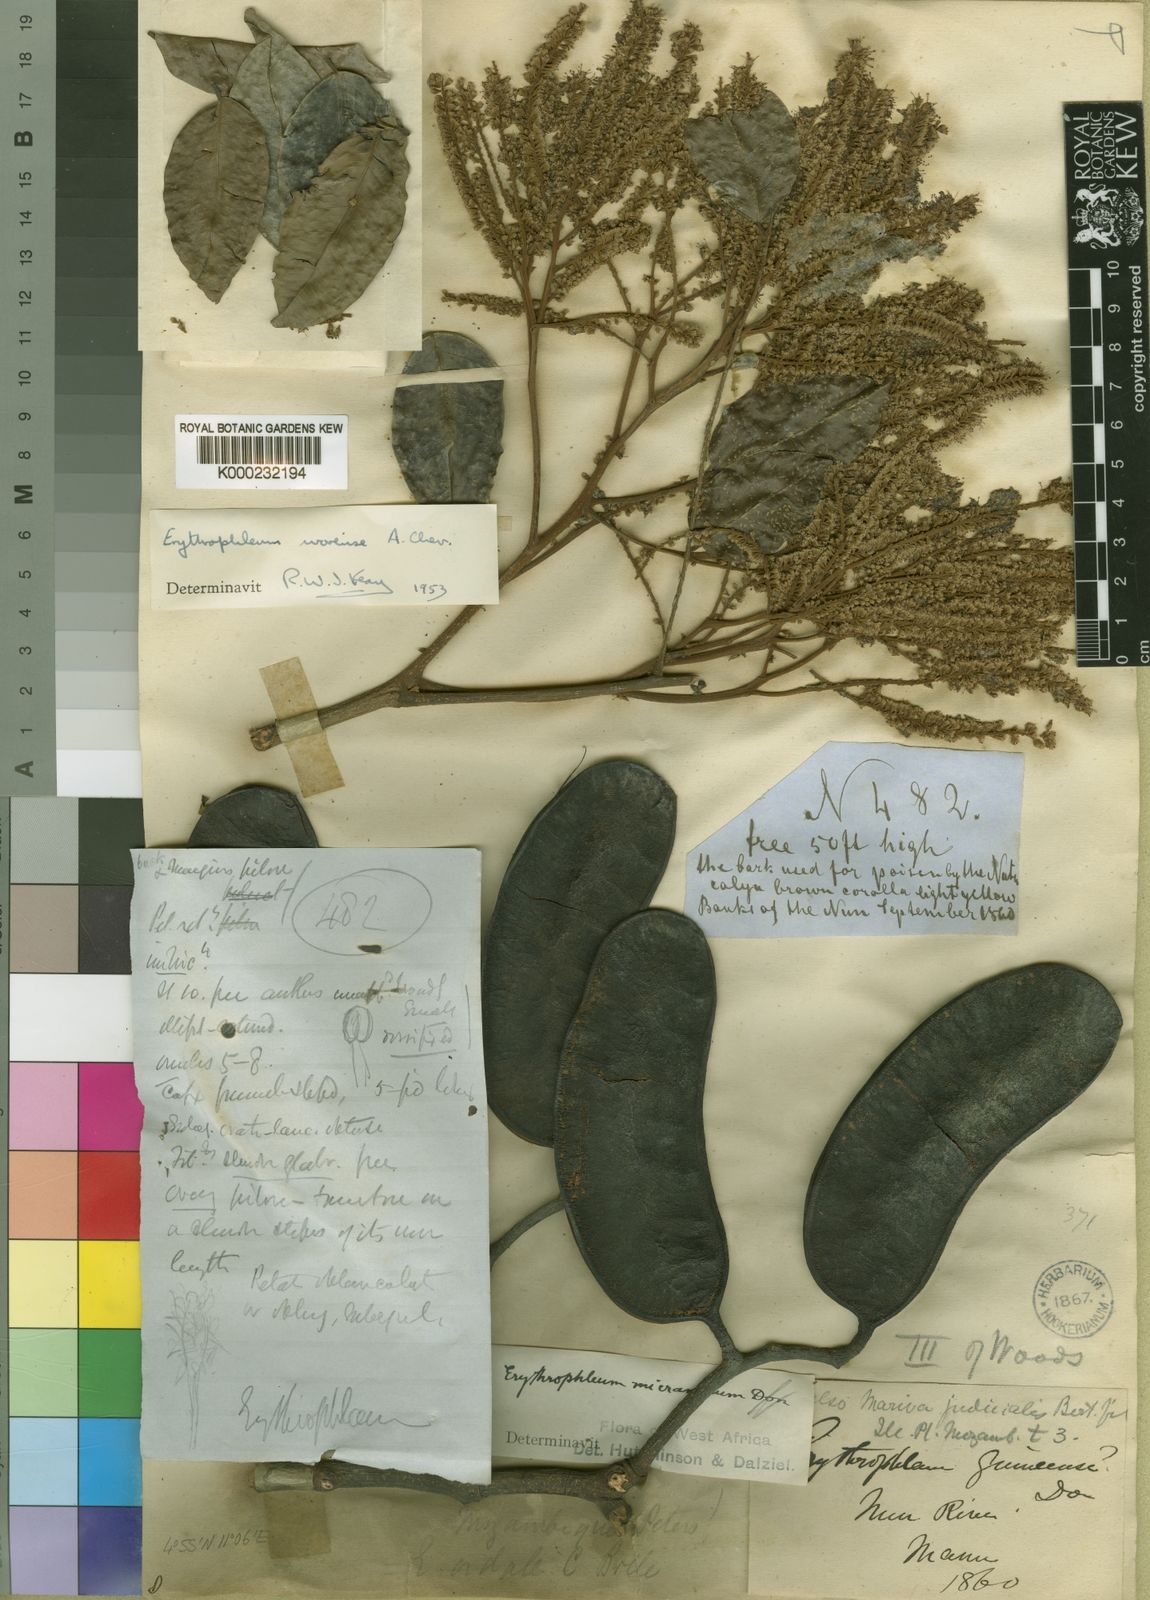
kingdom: Plantae
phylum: Tracheophyta
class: Magnoliopsida
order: Fabales
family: Fabaceae
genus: Erythrophleum
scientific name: Erythrophleum ivorense
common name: Ordealtree
